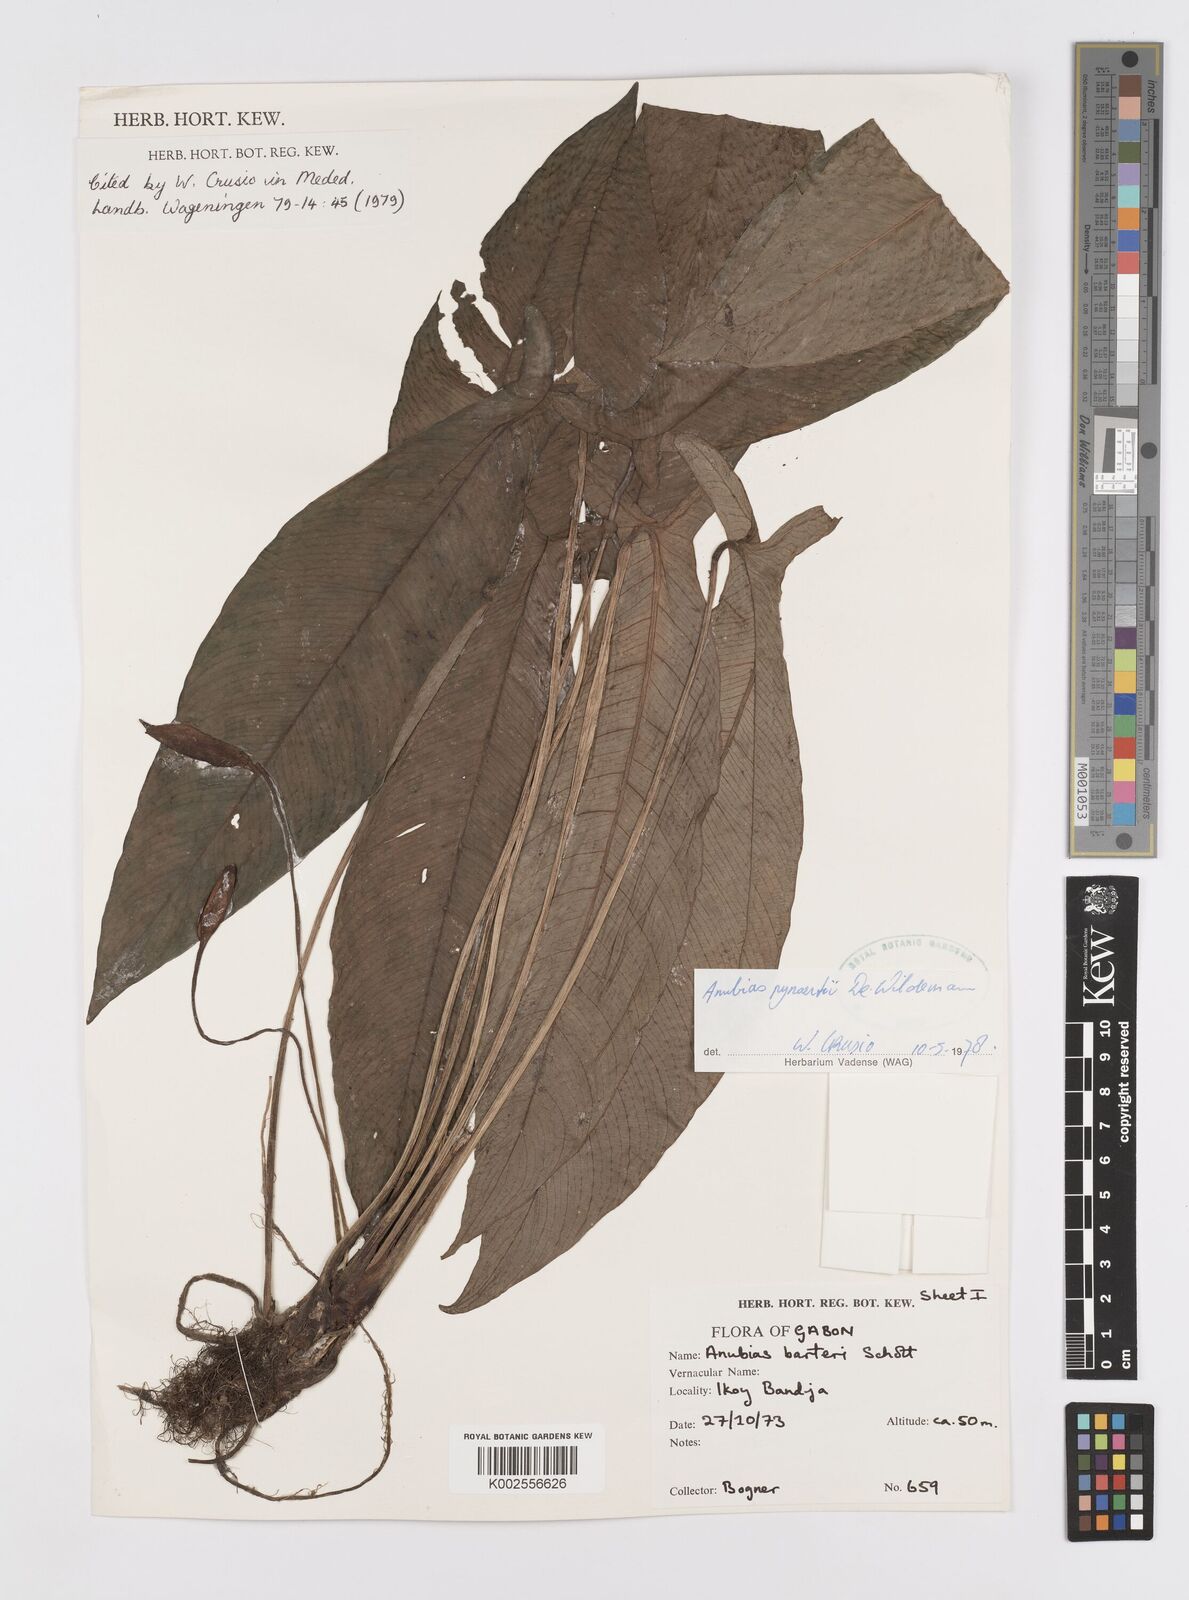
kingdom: Plantae
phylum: Tracheophyta
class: Liliopsida
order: Alismatales
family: Araceae
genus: Anubias
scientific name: Anubias pynaertii
